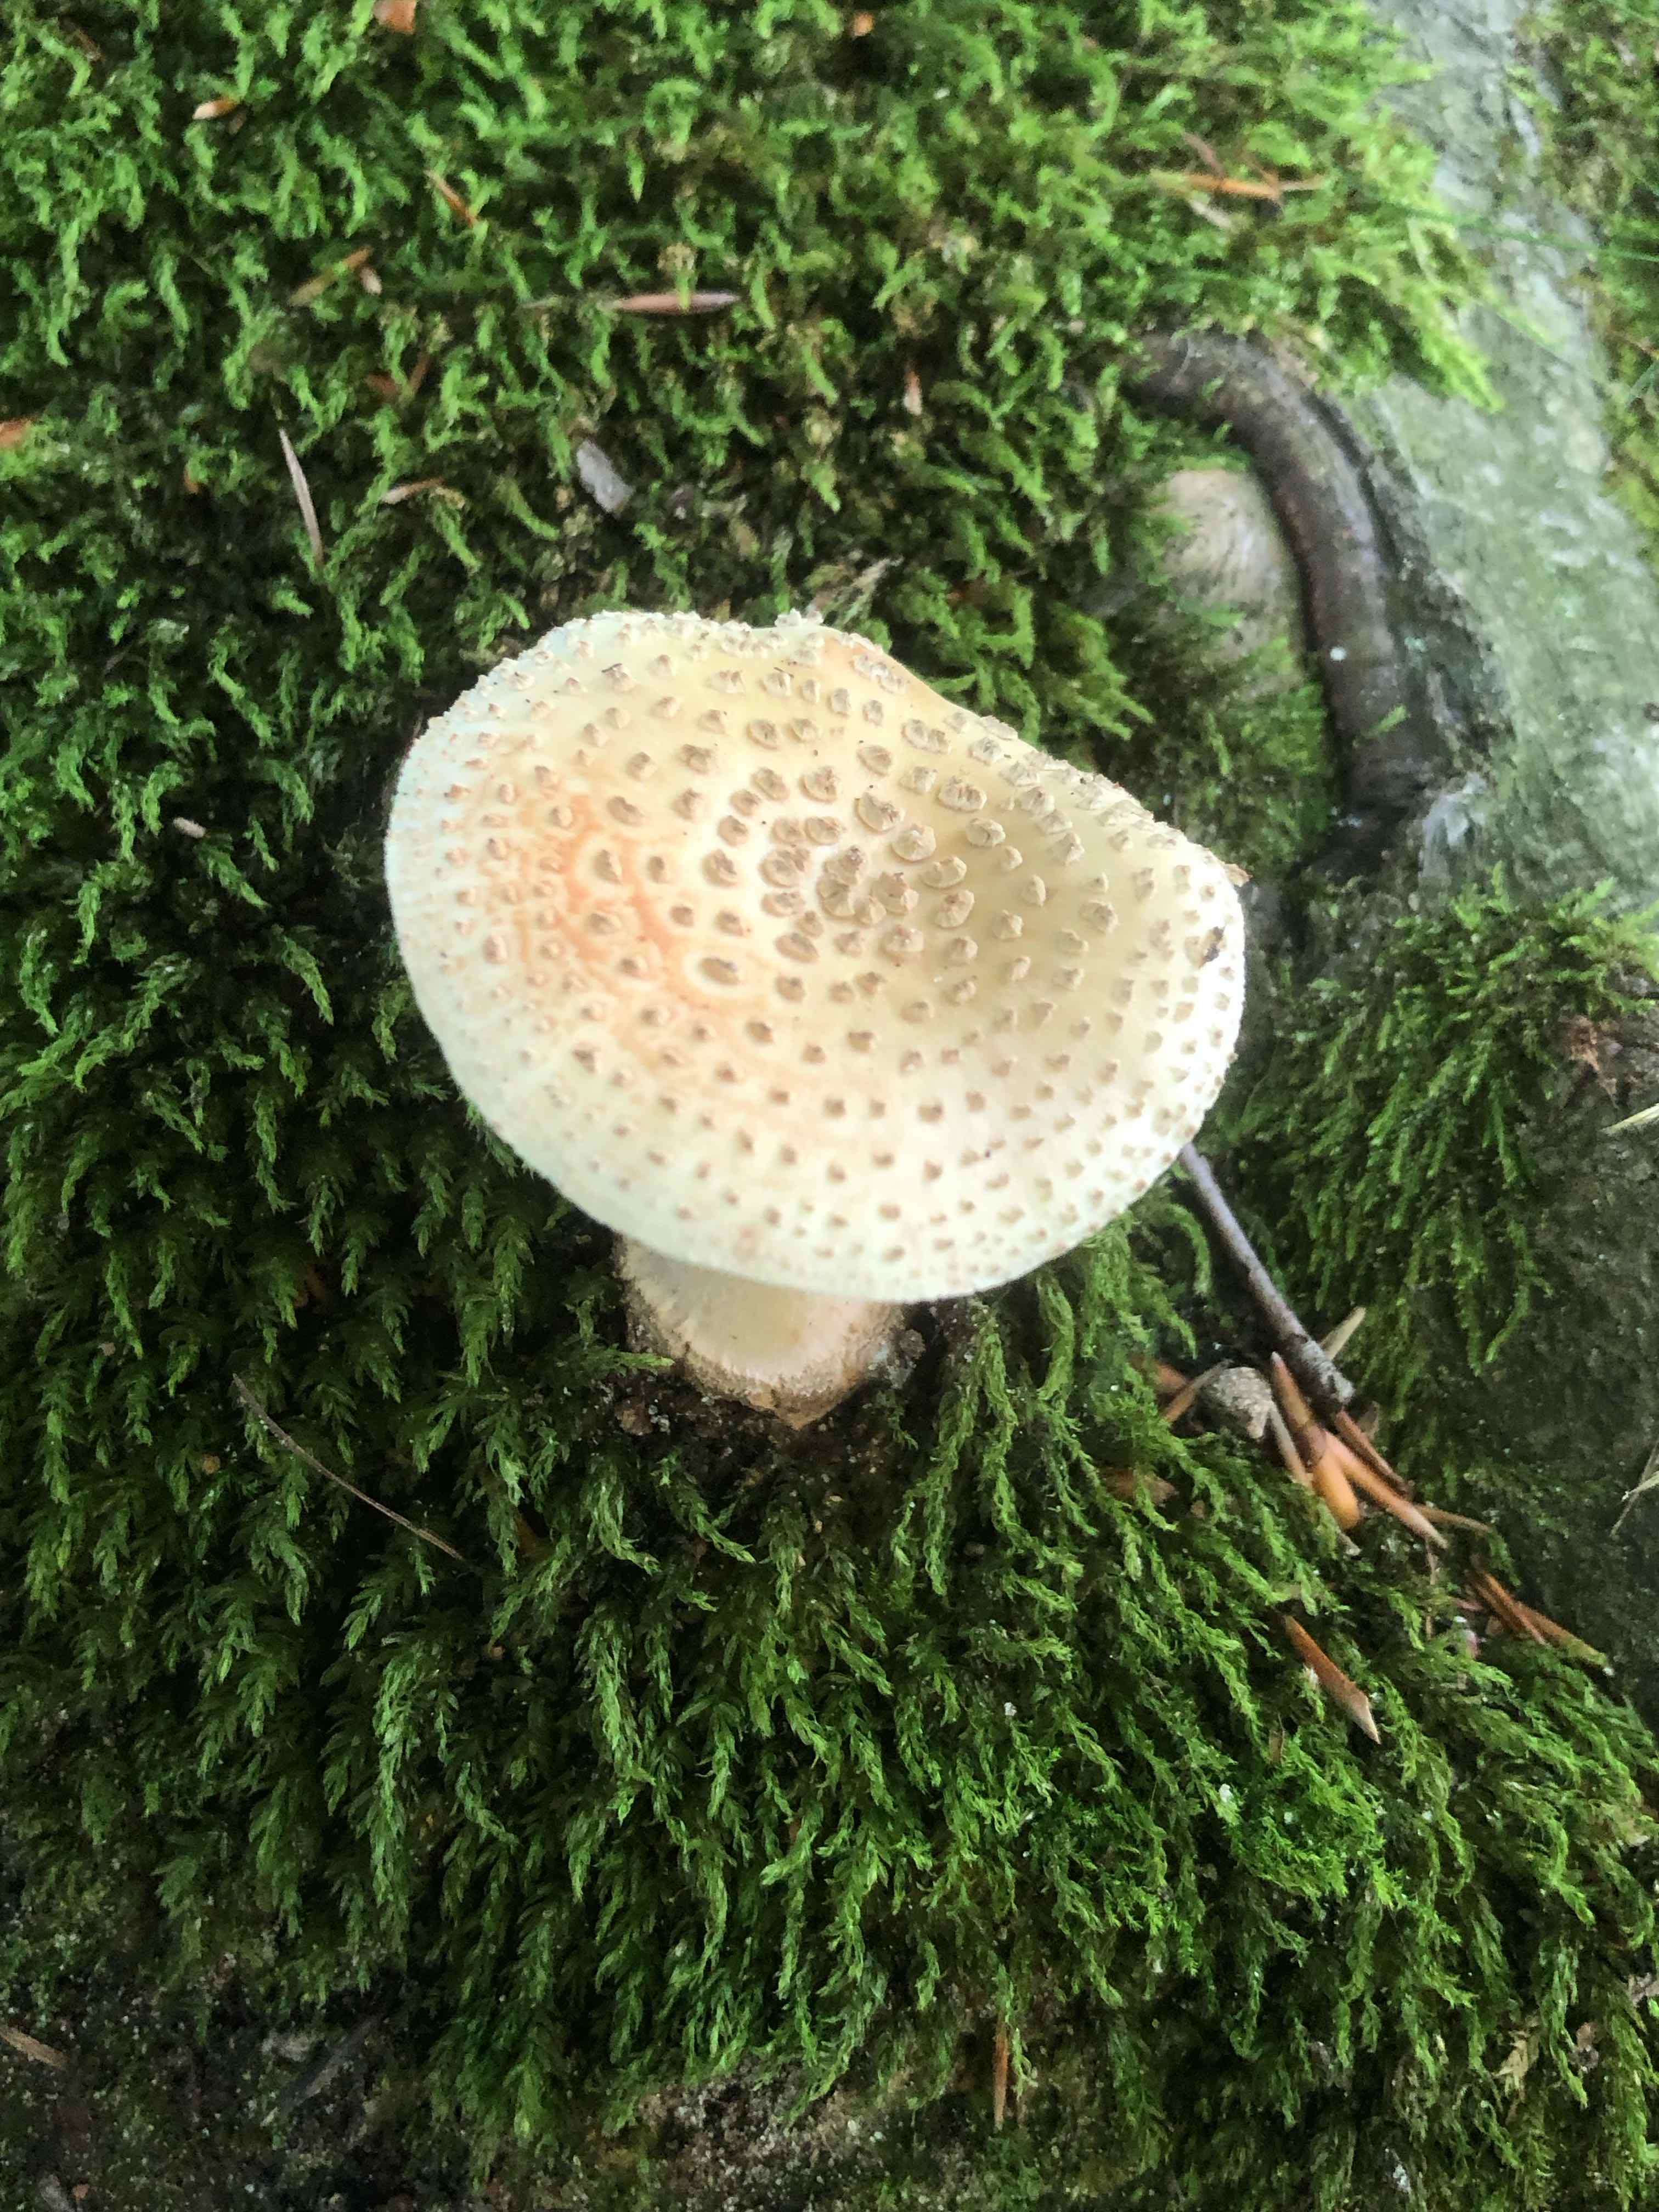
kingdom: Fungi
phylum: Basidiomycota
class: Agaricomycetes
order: Agaricales
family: Amanitaceae
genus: Amanita
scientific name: Amanita rubescens
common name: rødmende fluesvamp
